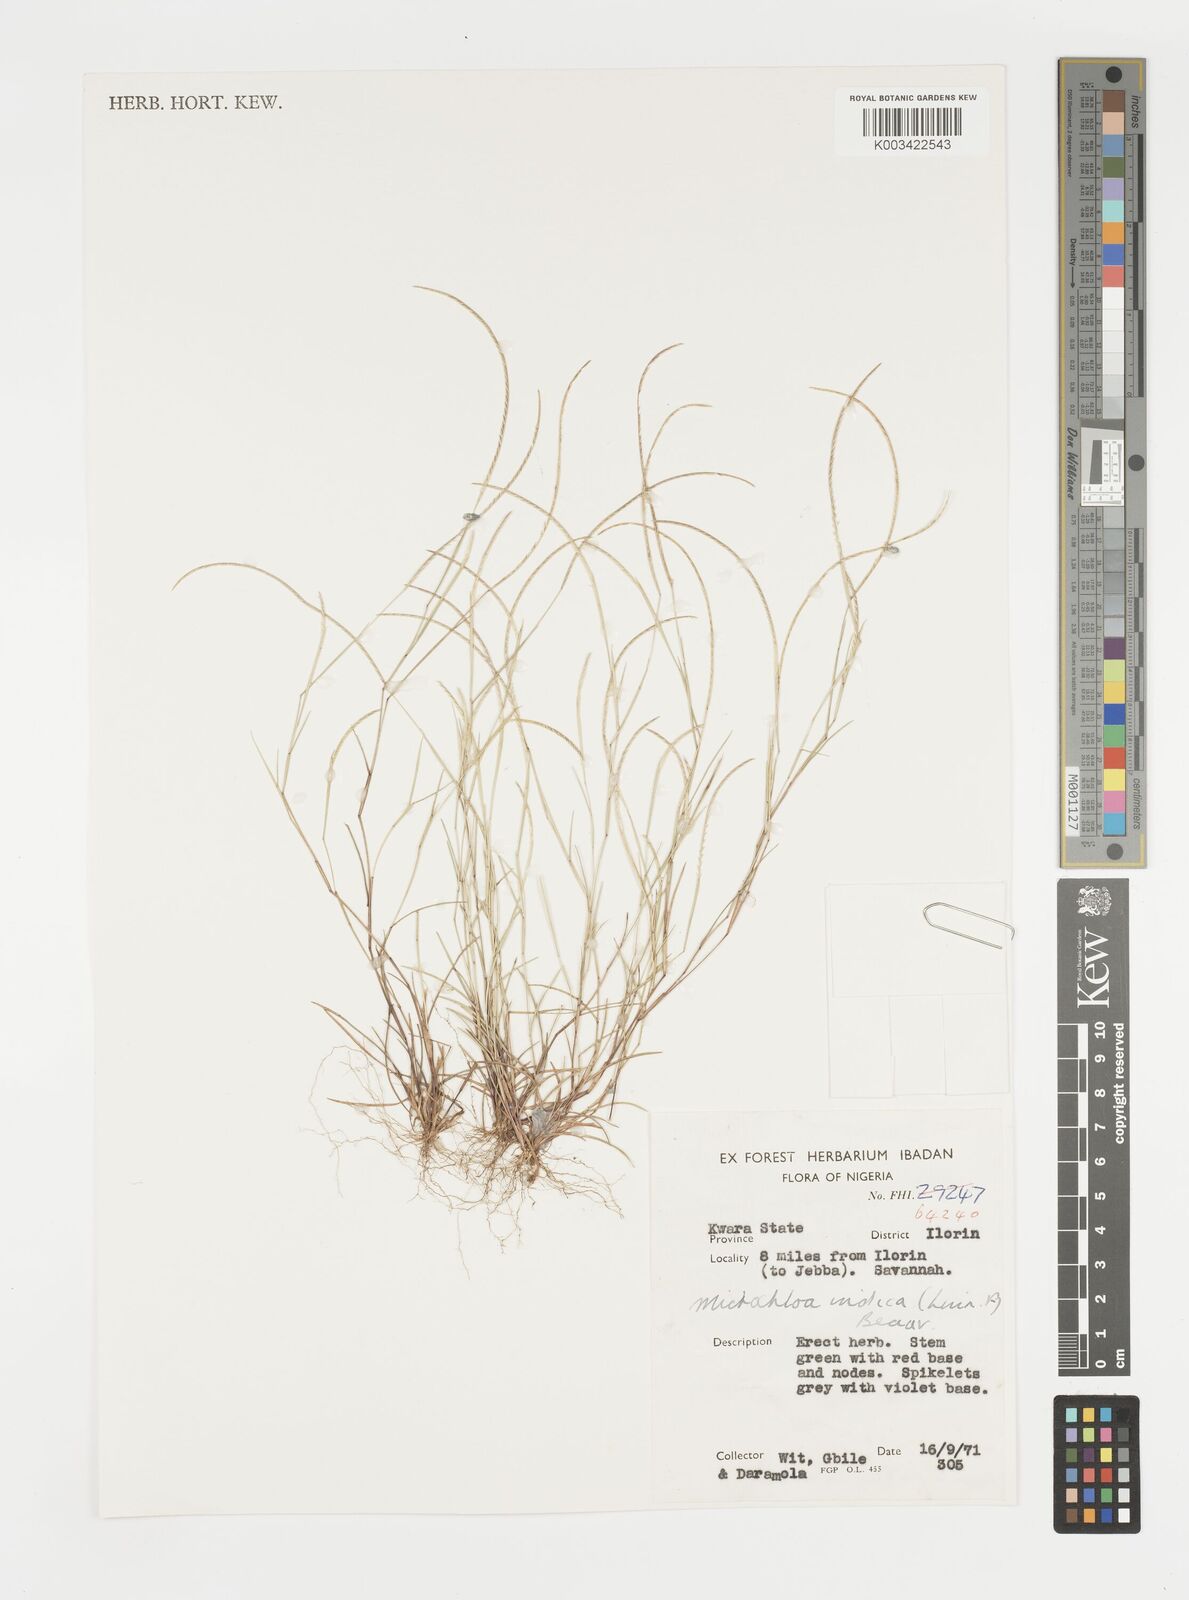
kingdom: Plantae
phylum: Tracheophyta
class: Liliopsida
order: Poales
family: Poaceae
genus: Microchloa
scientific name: Microchloa indica
